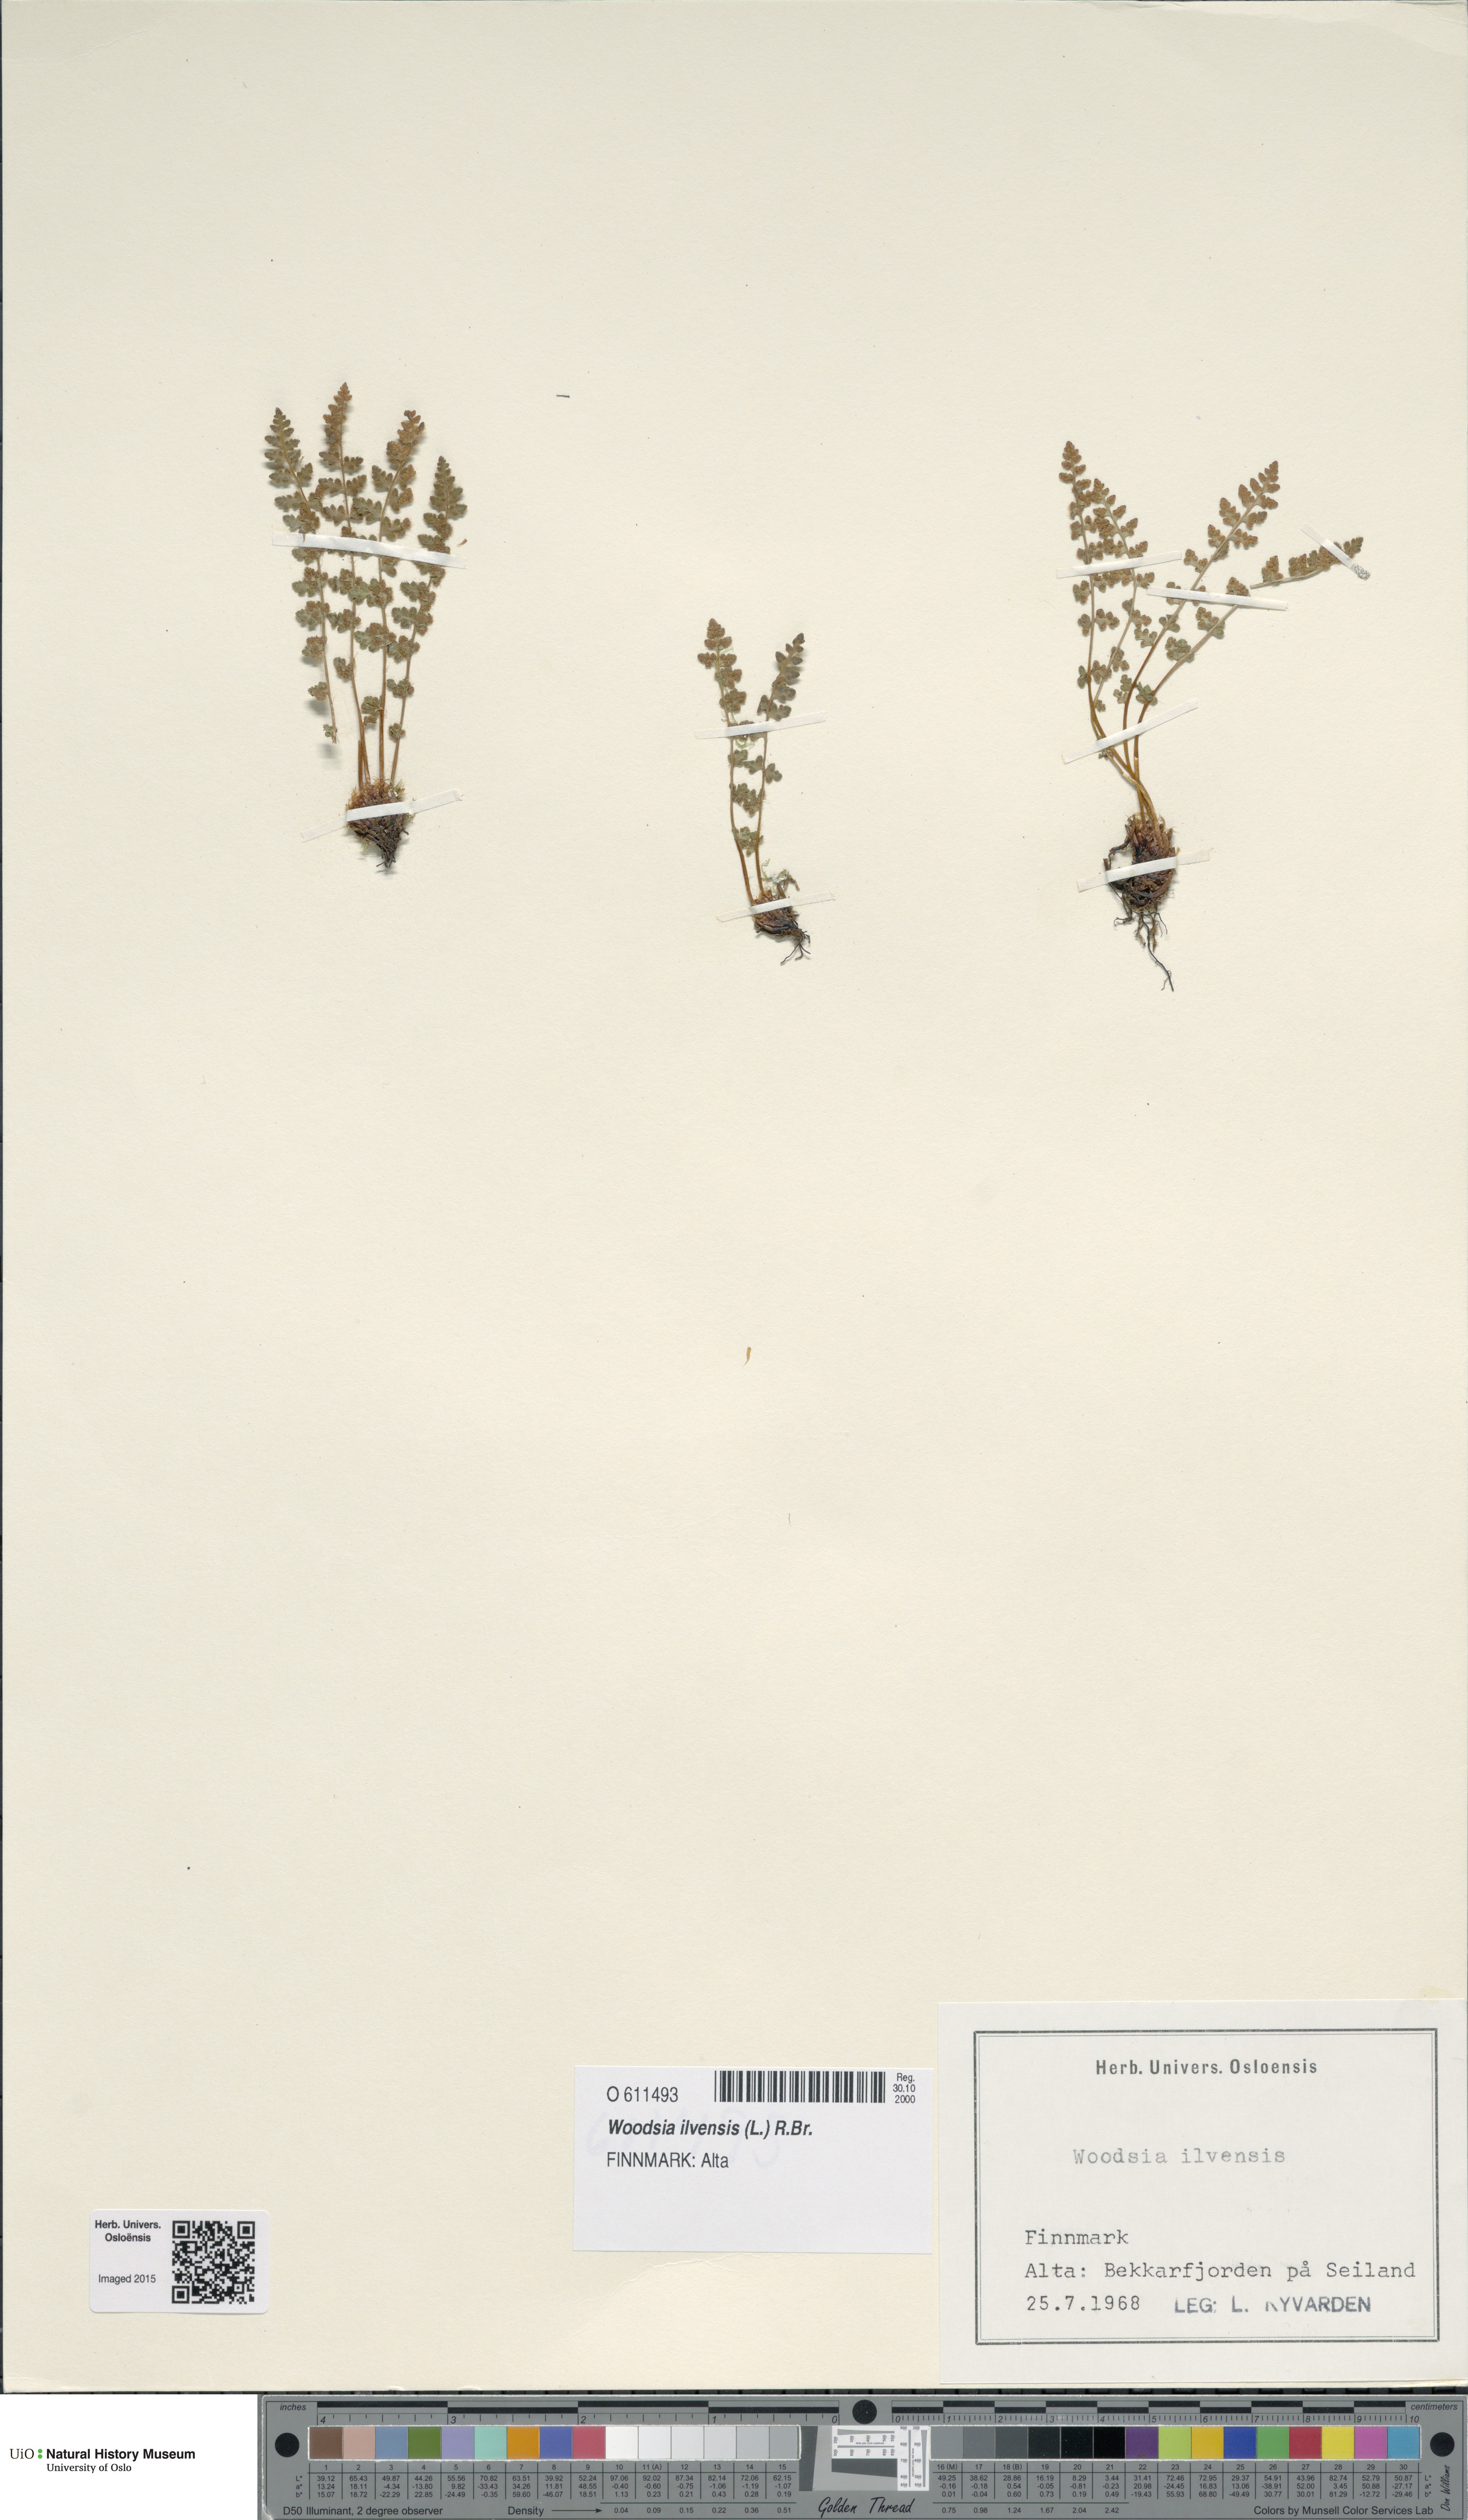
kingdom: Plantae
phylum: Tracheophyta
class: Polypodiopsida
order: Polypodiales
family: Woodsiaceae
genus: Woodsia
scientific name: Woodsia ilvensis
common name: Fragrant woodsia
